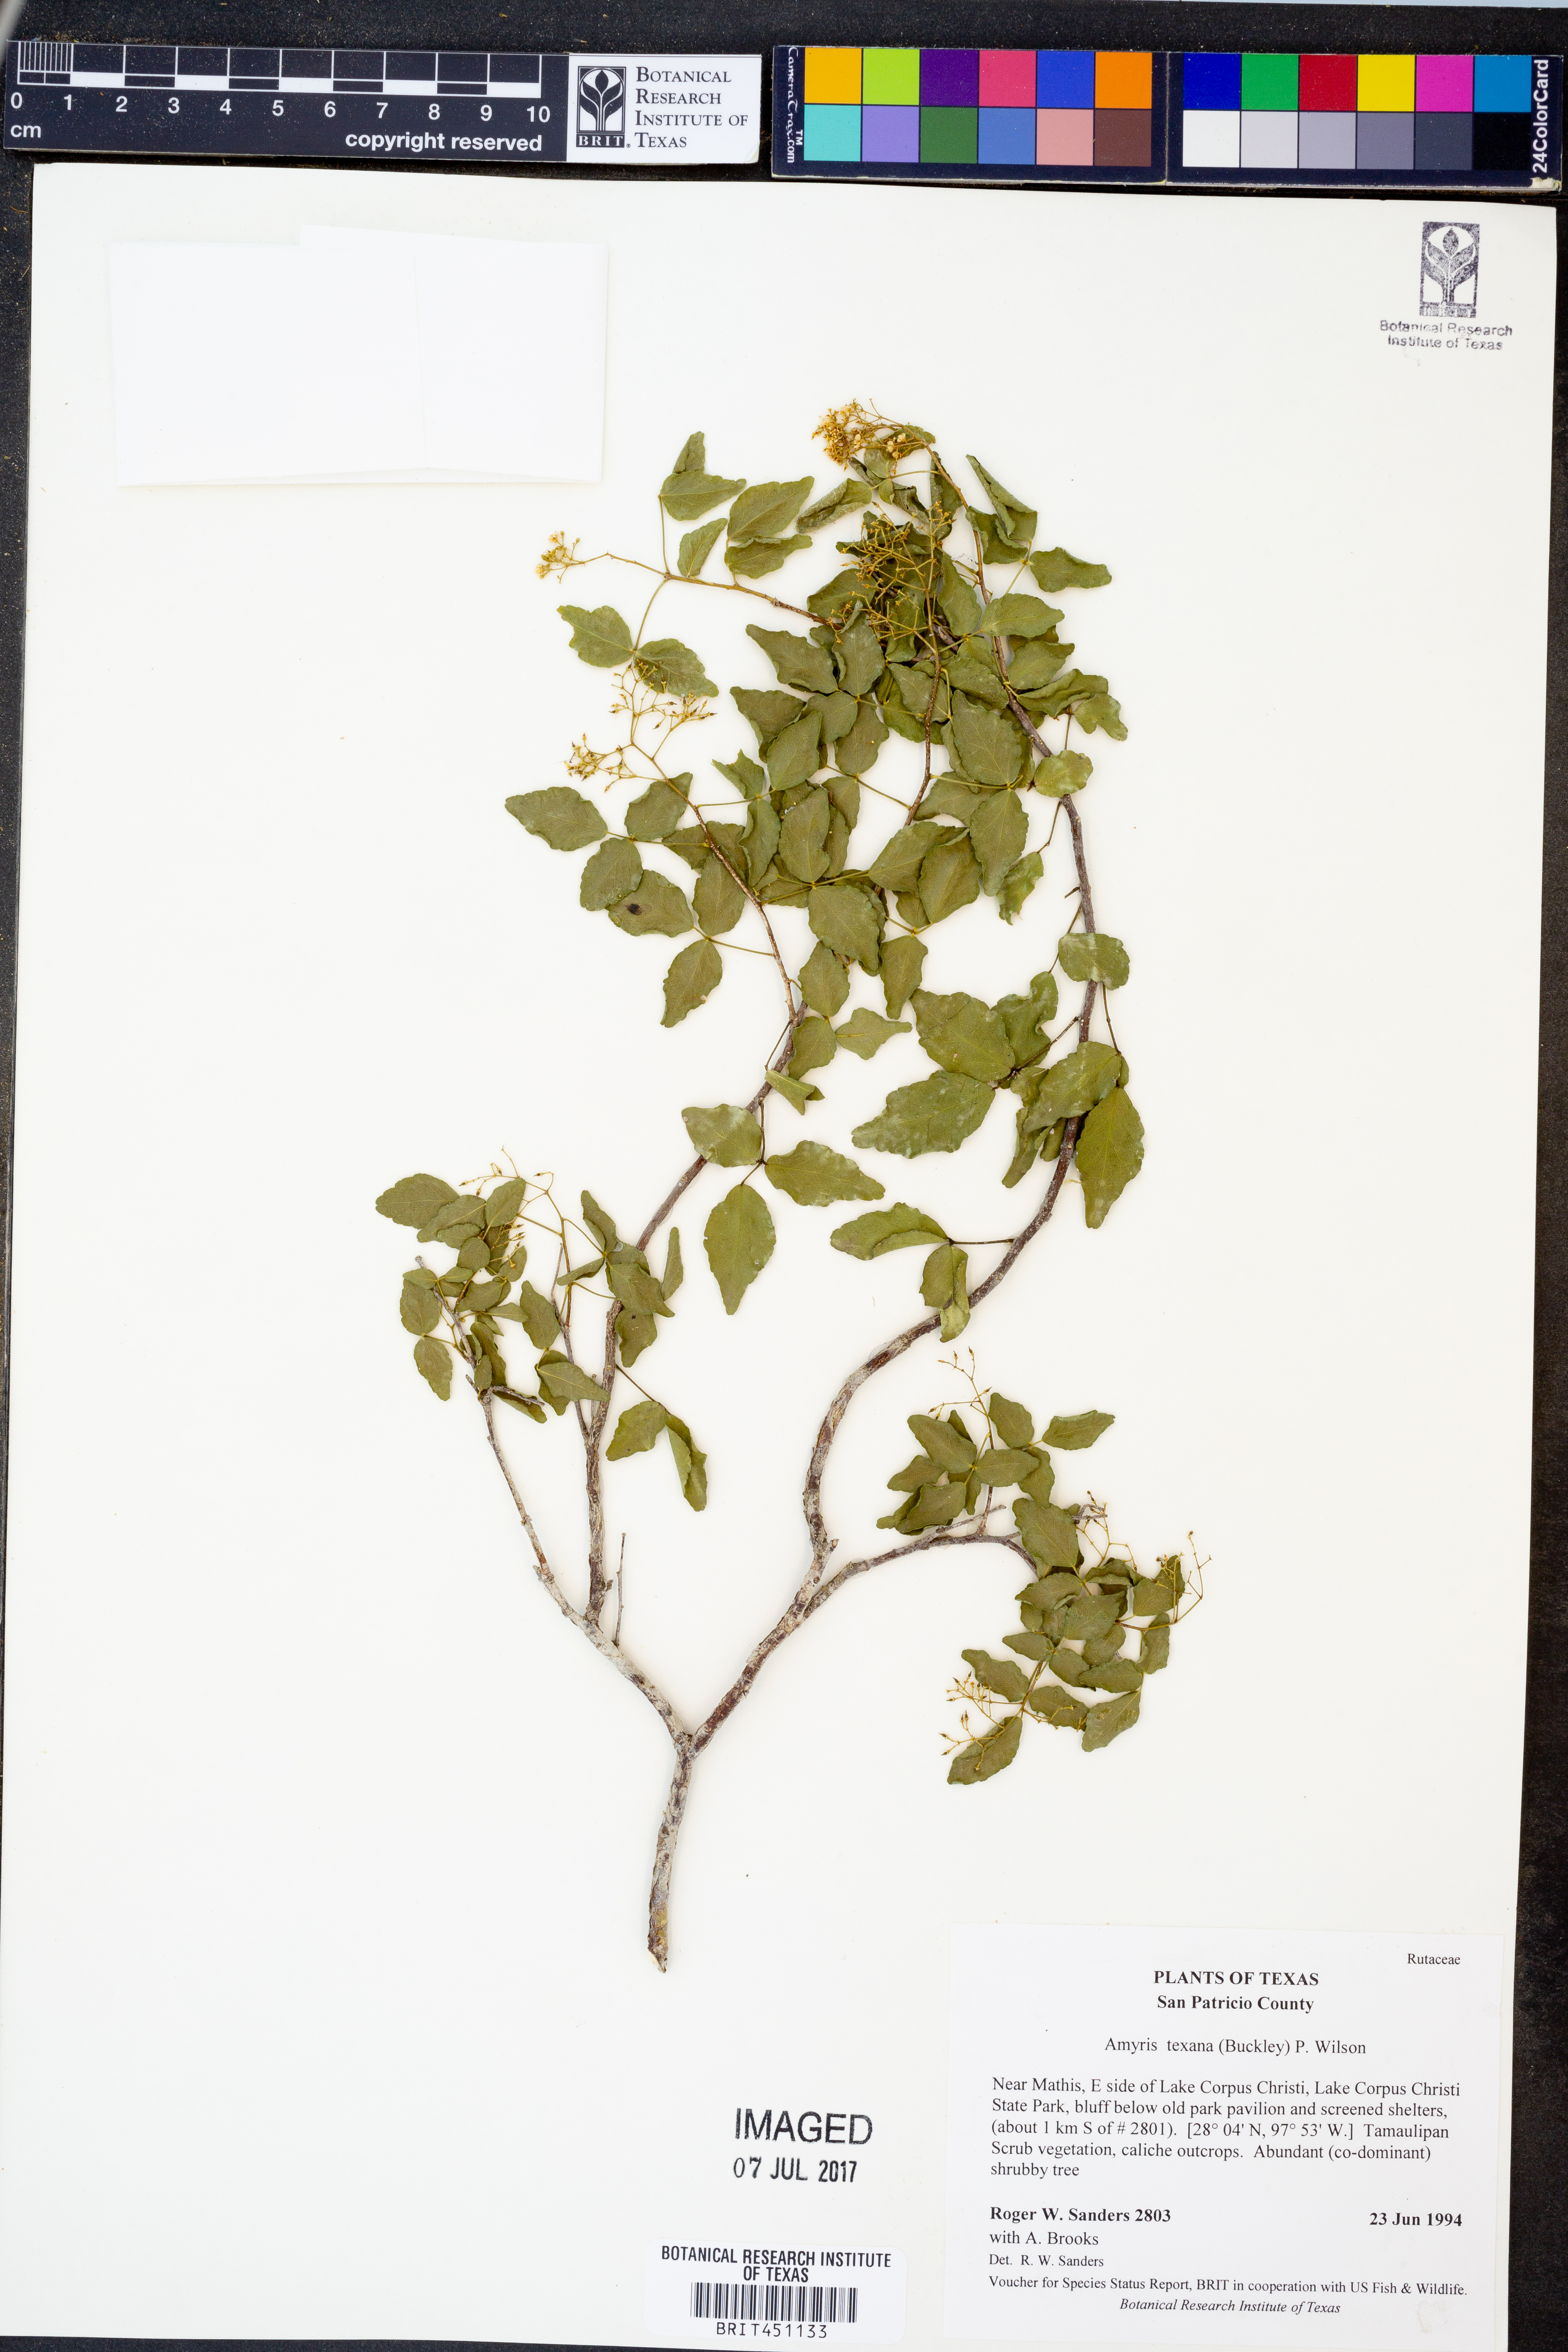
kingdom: Plantae
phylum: Tracheophyta
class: Magnoliopsida
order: Sapindales
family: Rutaceae
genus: Amyris
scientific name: Amyris texana
